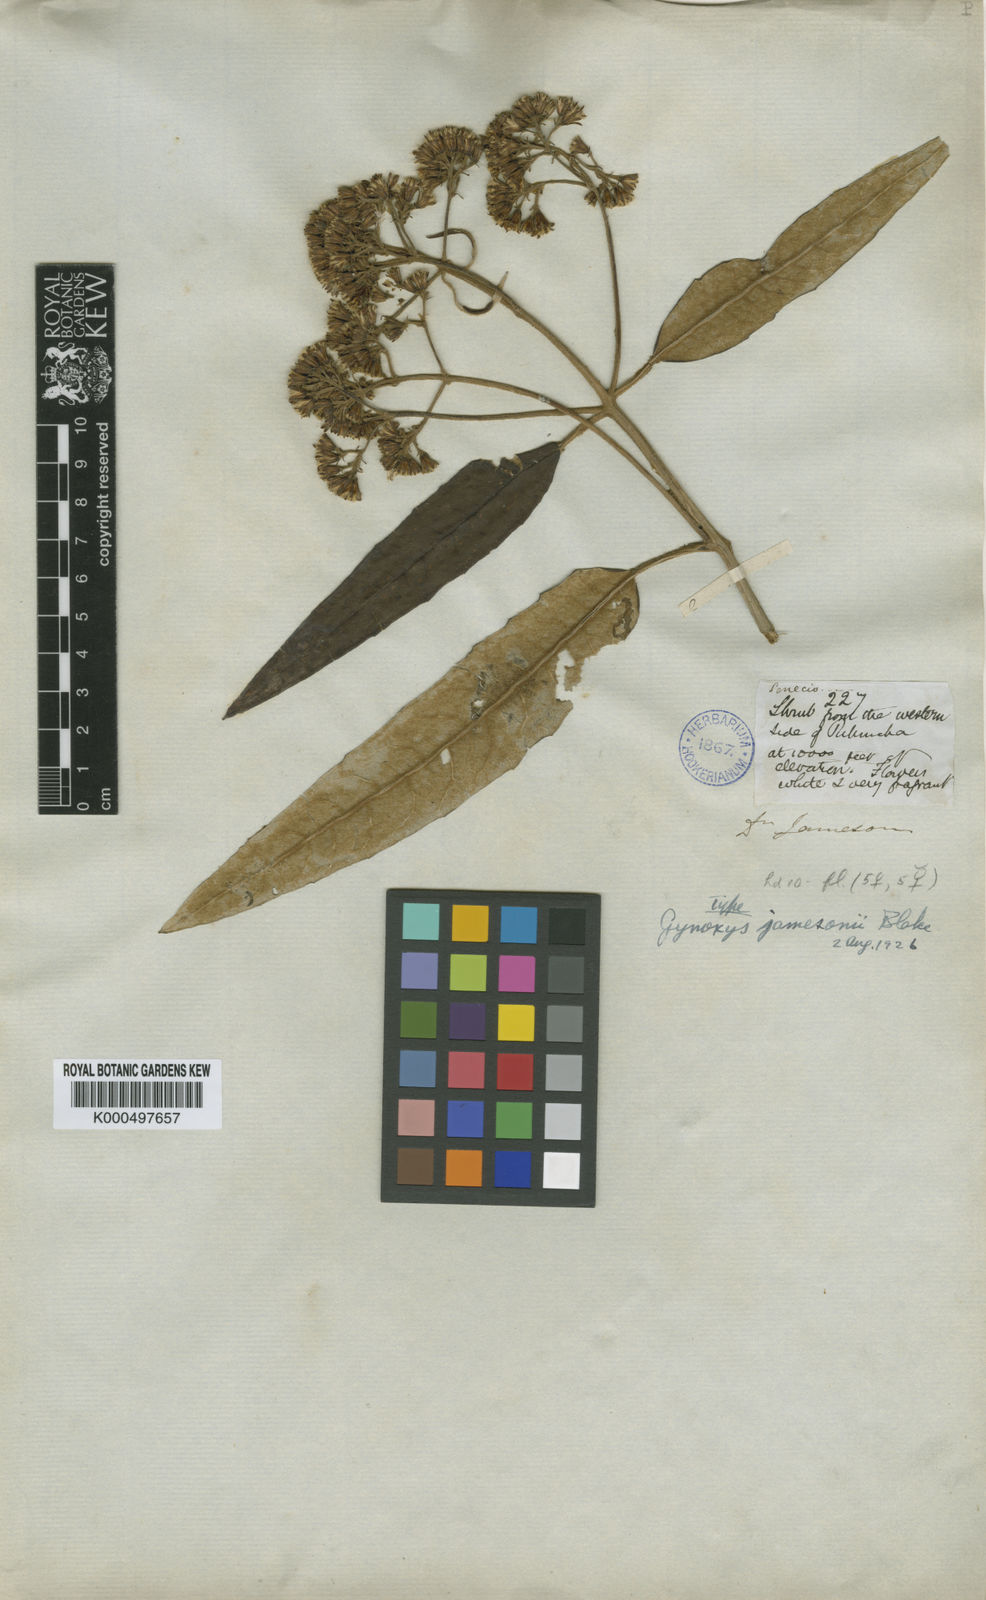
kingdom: Plantae
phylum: Tracheophyta
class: Magnoliopsida
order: Asterales
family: Asteraceae
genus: Aequatorium
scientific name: Aequatorium jamesonii
